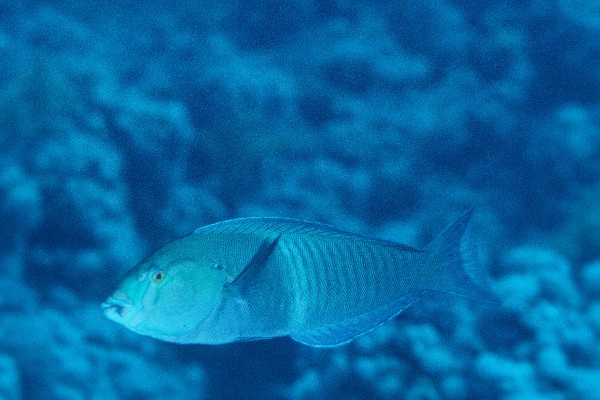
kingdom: Animalia
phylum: Chordata
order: Perciformes
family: Labridae
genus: Hologymnosus
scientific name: Hologymnosus annulatus
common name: Ring wrasse
